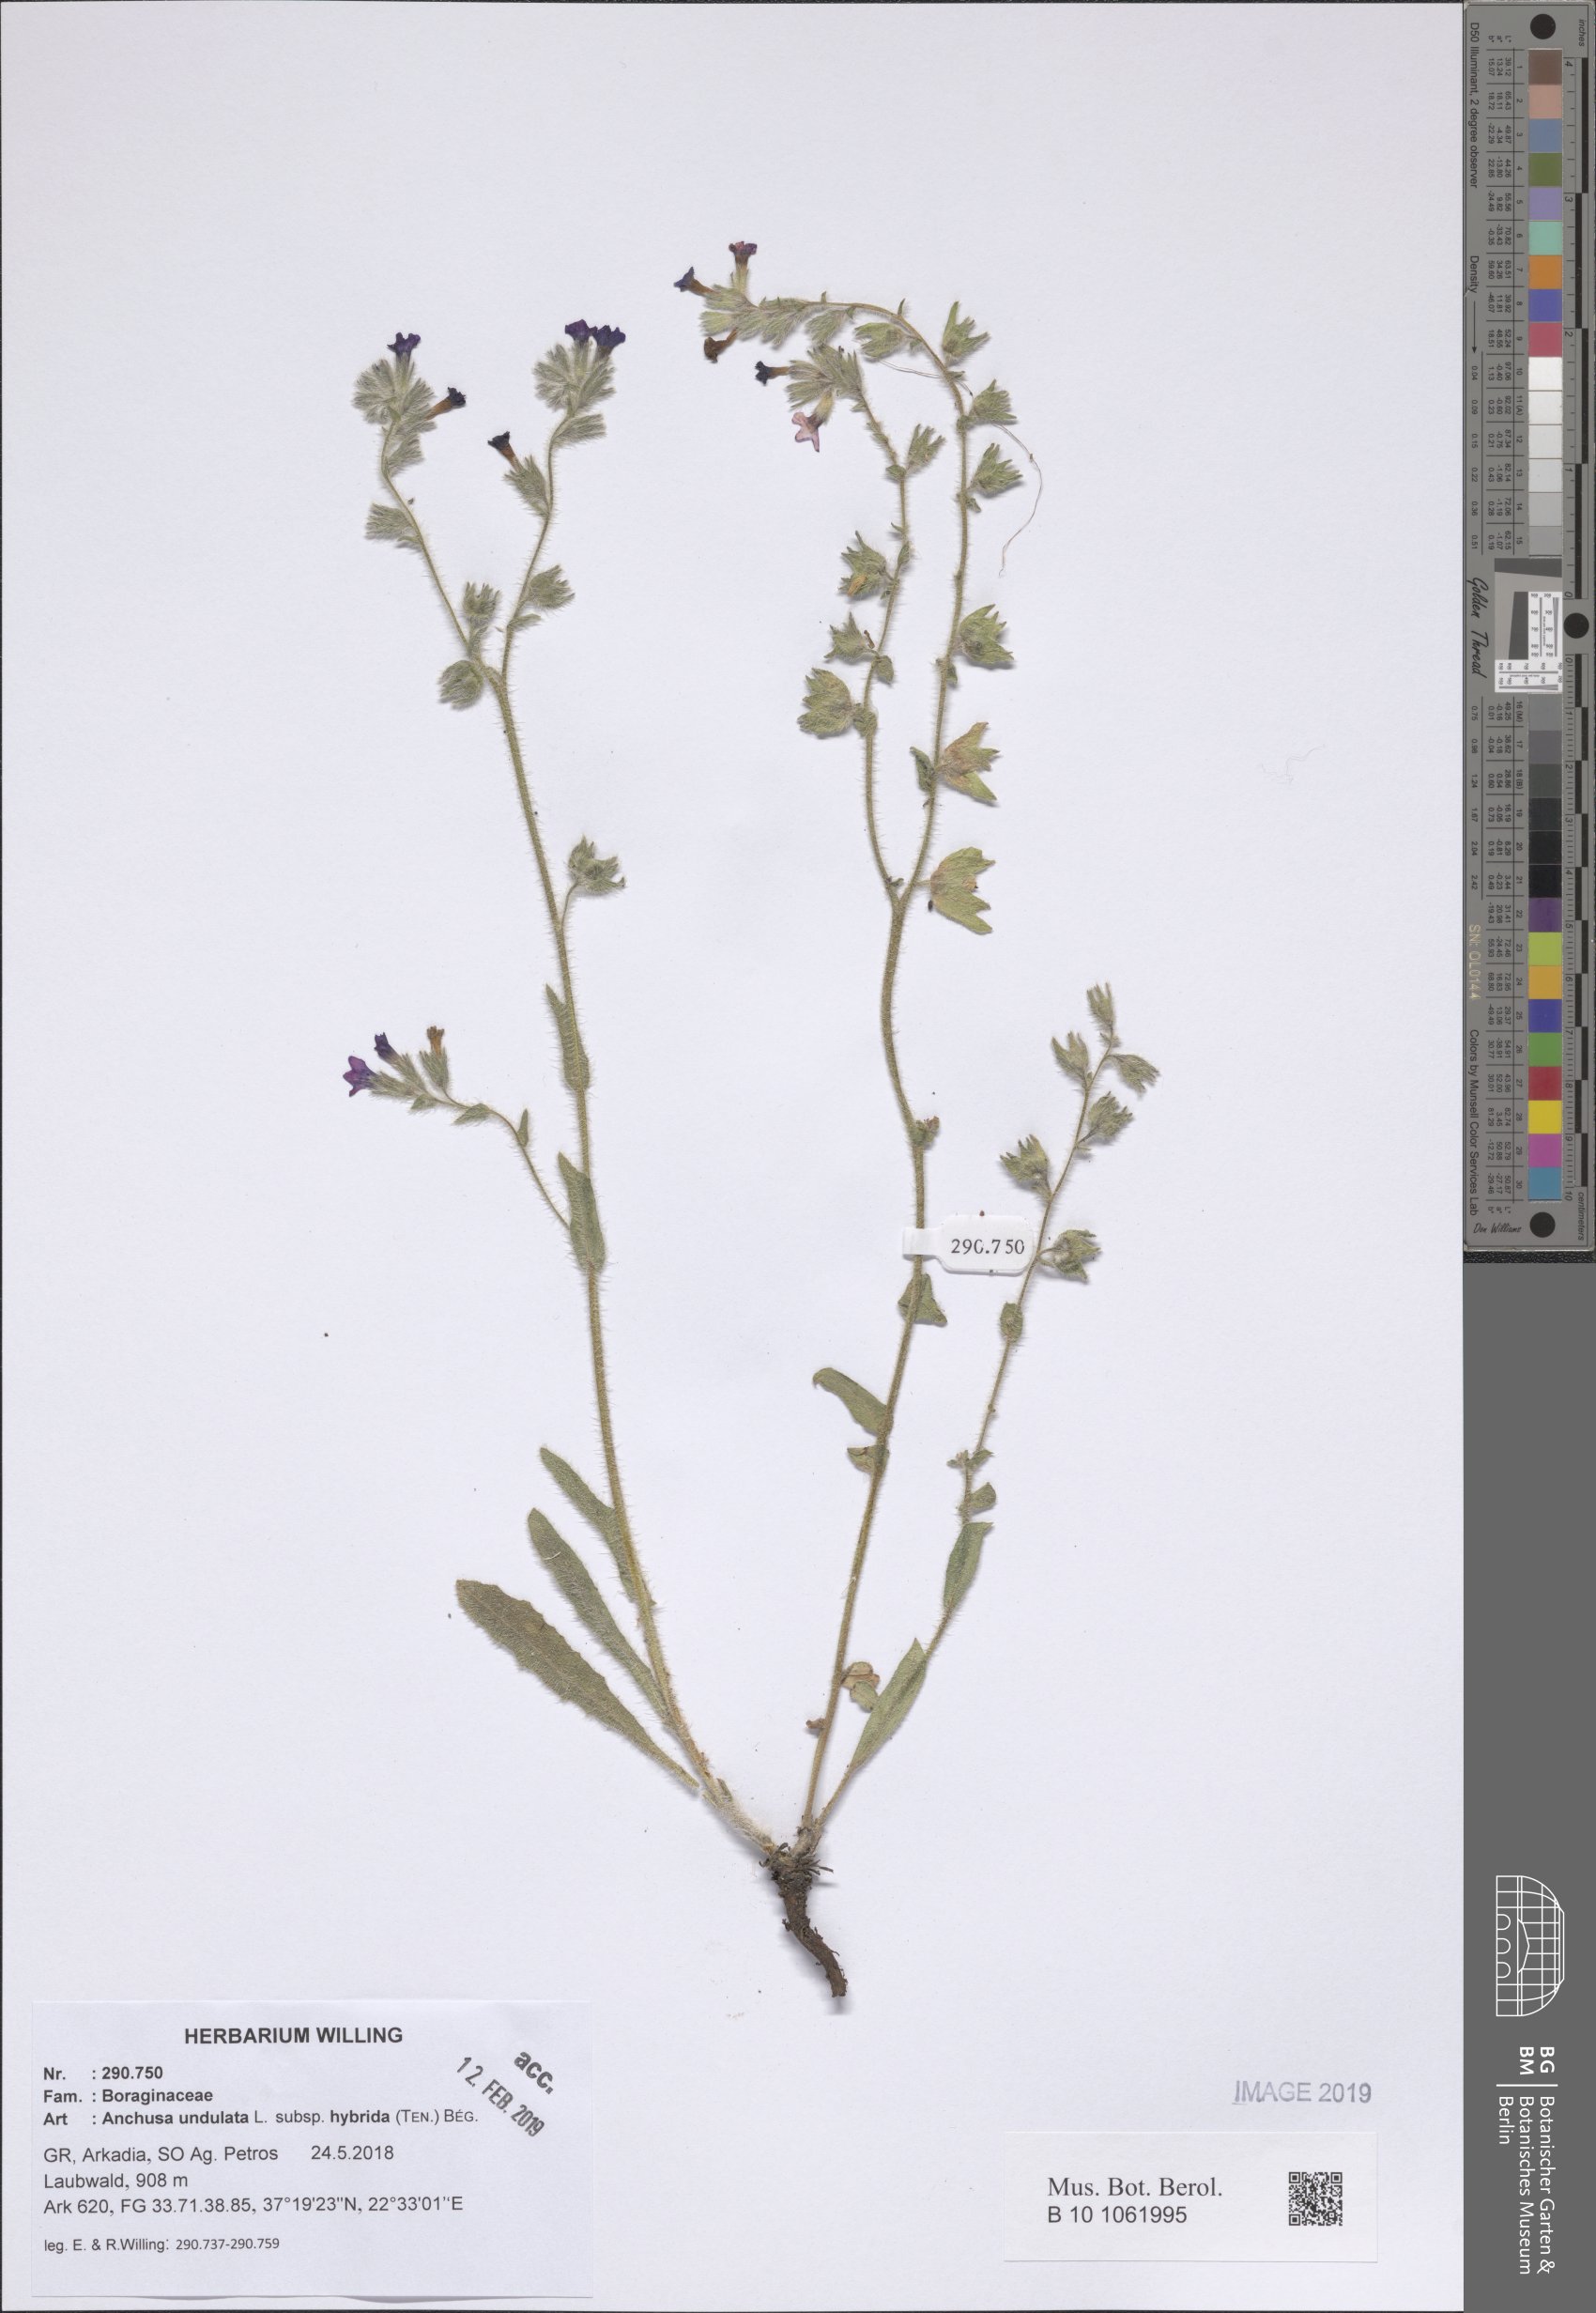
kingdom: Plantae
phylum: Tracheophyta
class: Magnoliopsida
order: Boraginales
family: Boraginaceae
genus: Anchusa
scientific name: Anchusa undulata
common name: Undulate alkanet
